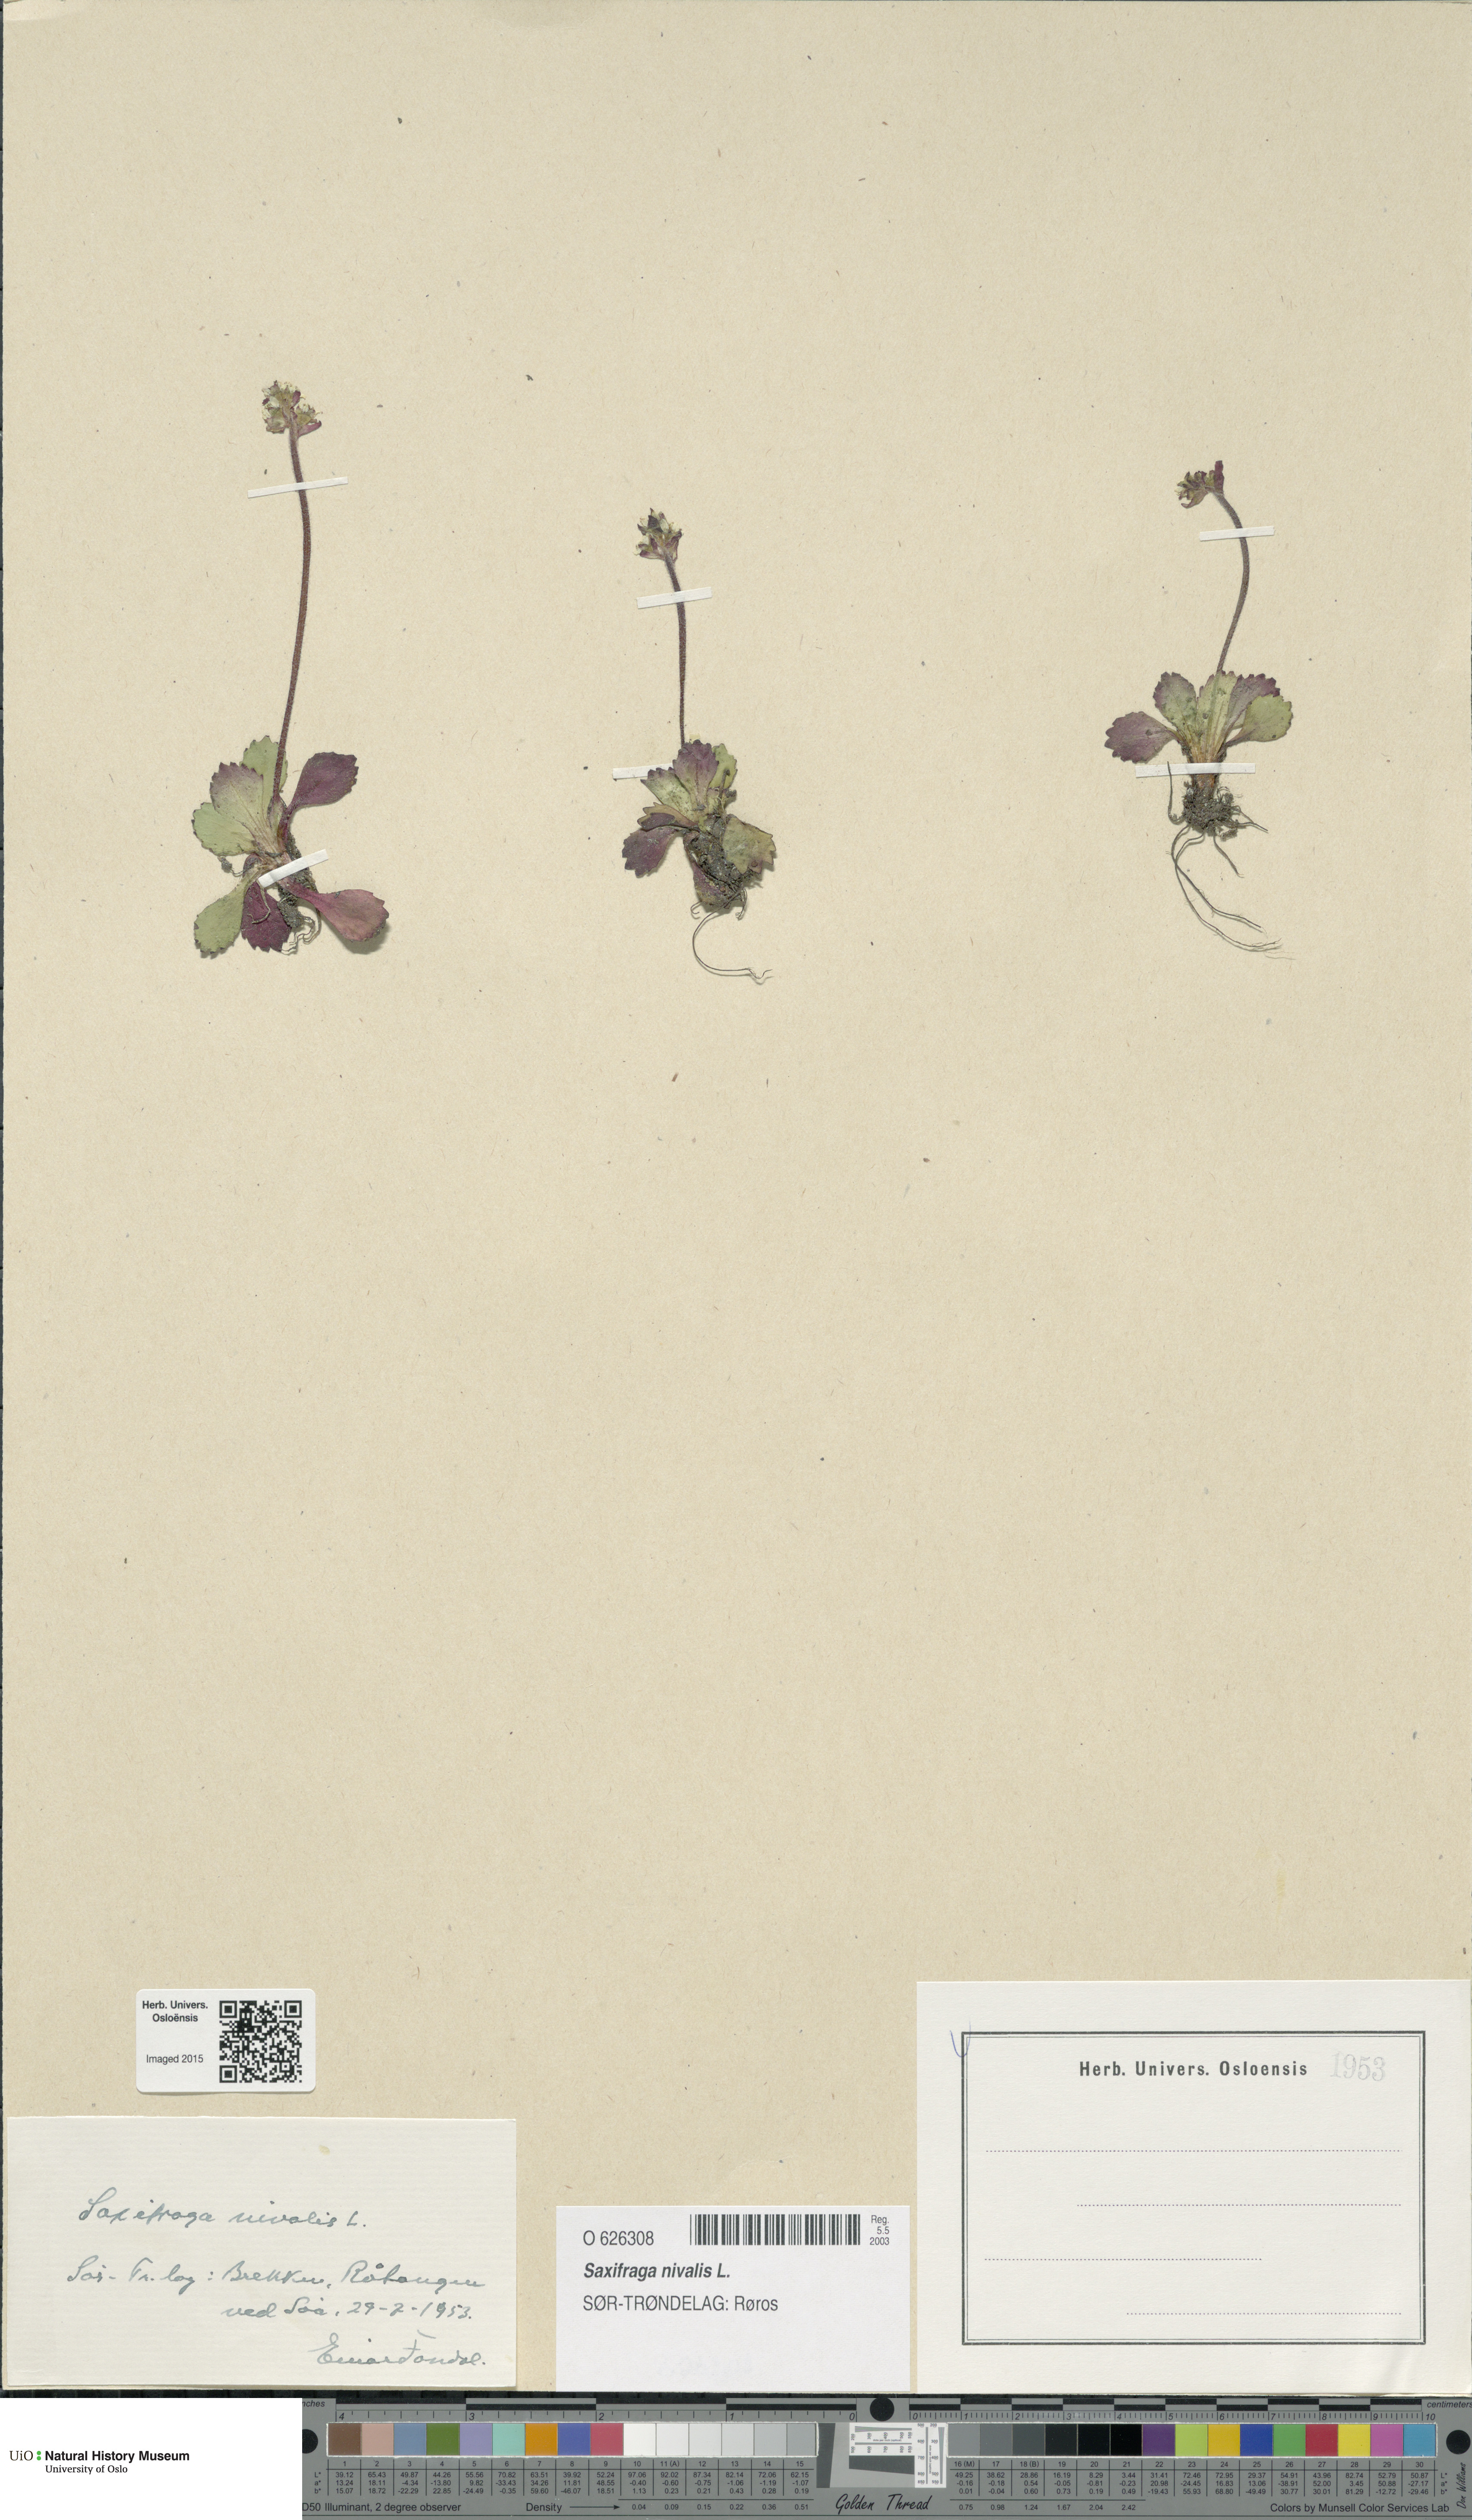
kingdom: Plantae
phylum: Tracheophyta
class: Magnoliopsida
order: Saxifragales
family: Saxifragaceae
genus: Micranthes
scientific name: Micranthes nivalis
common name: Alpine saxifrage
